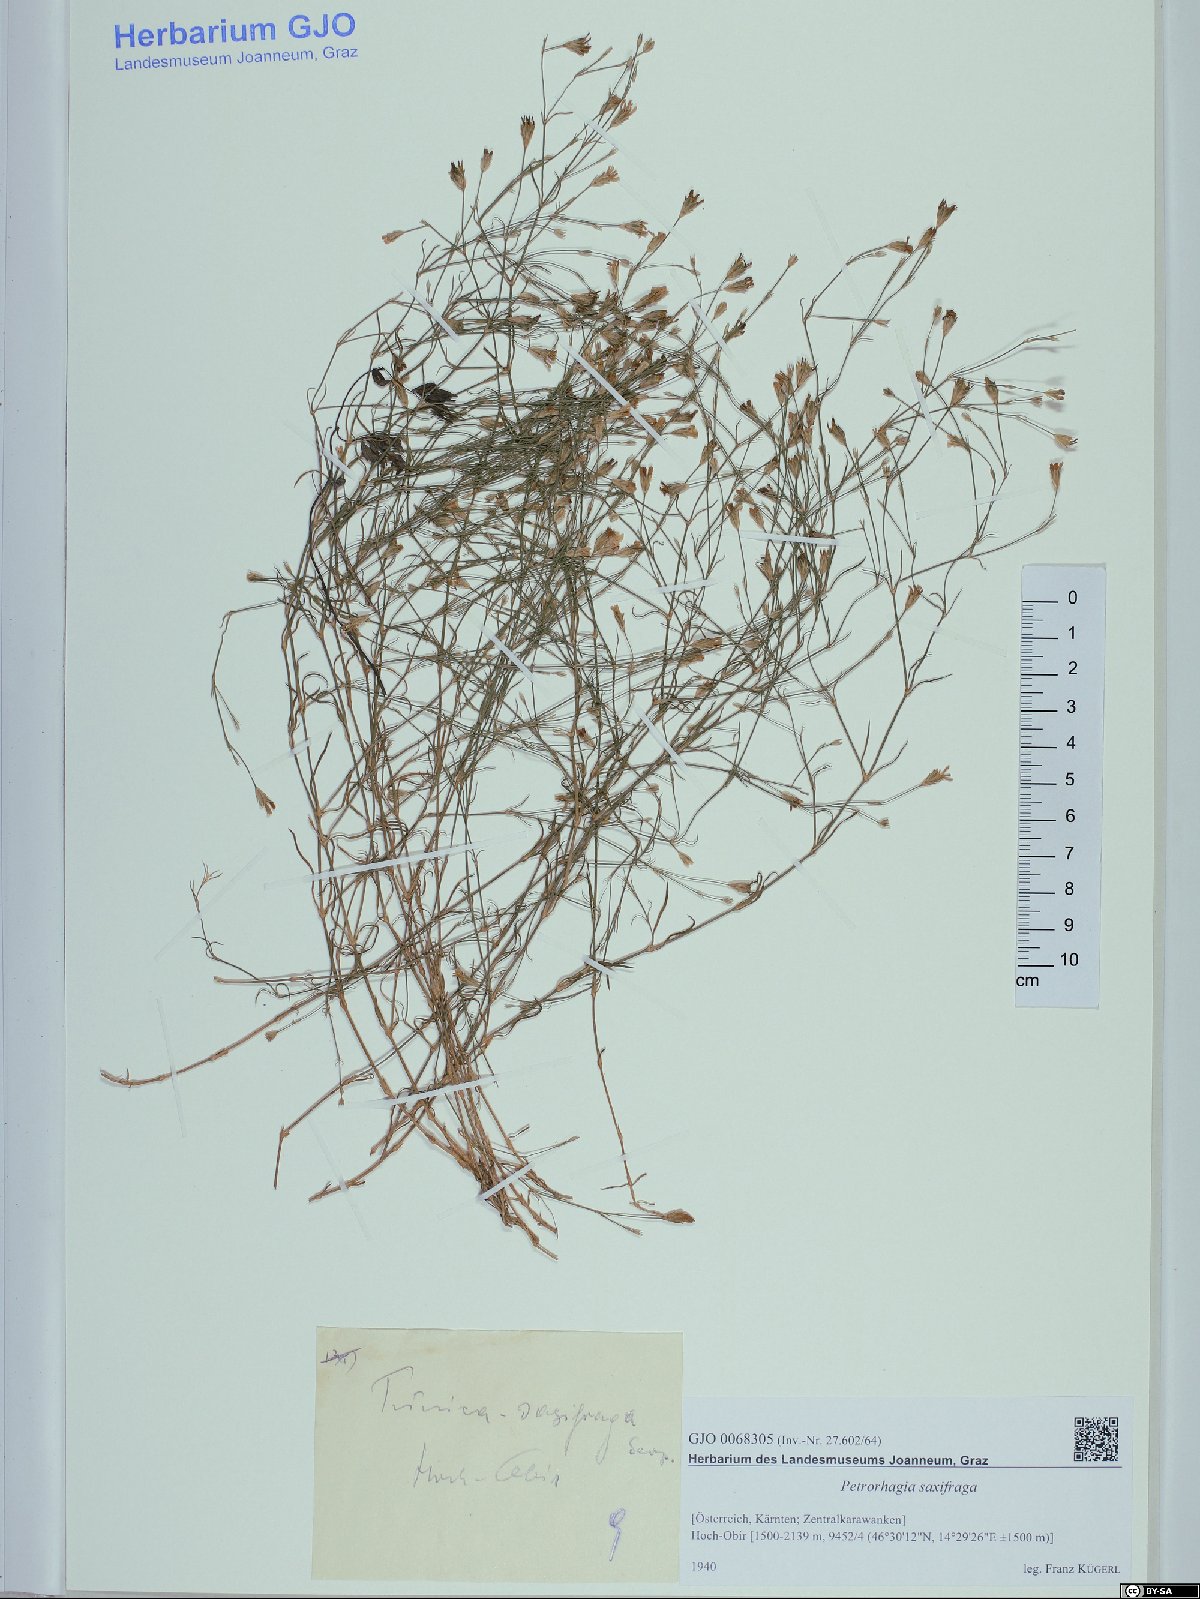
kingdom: Plantae
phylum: Tracheophyta
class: Magnoliopsida
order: Caryophyllales
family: Caryophyllaceae
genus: Petrorhagia
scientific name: Petrorhagia saxifraga
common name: Tunicflower
